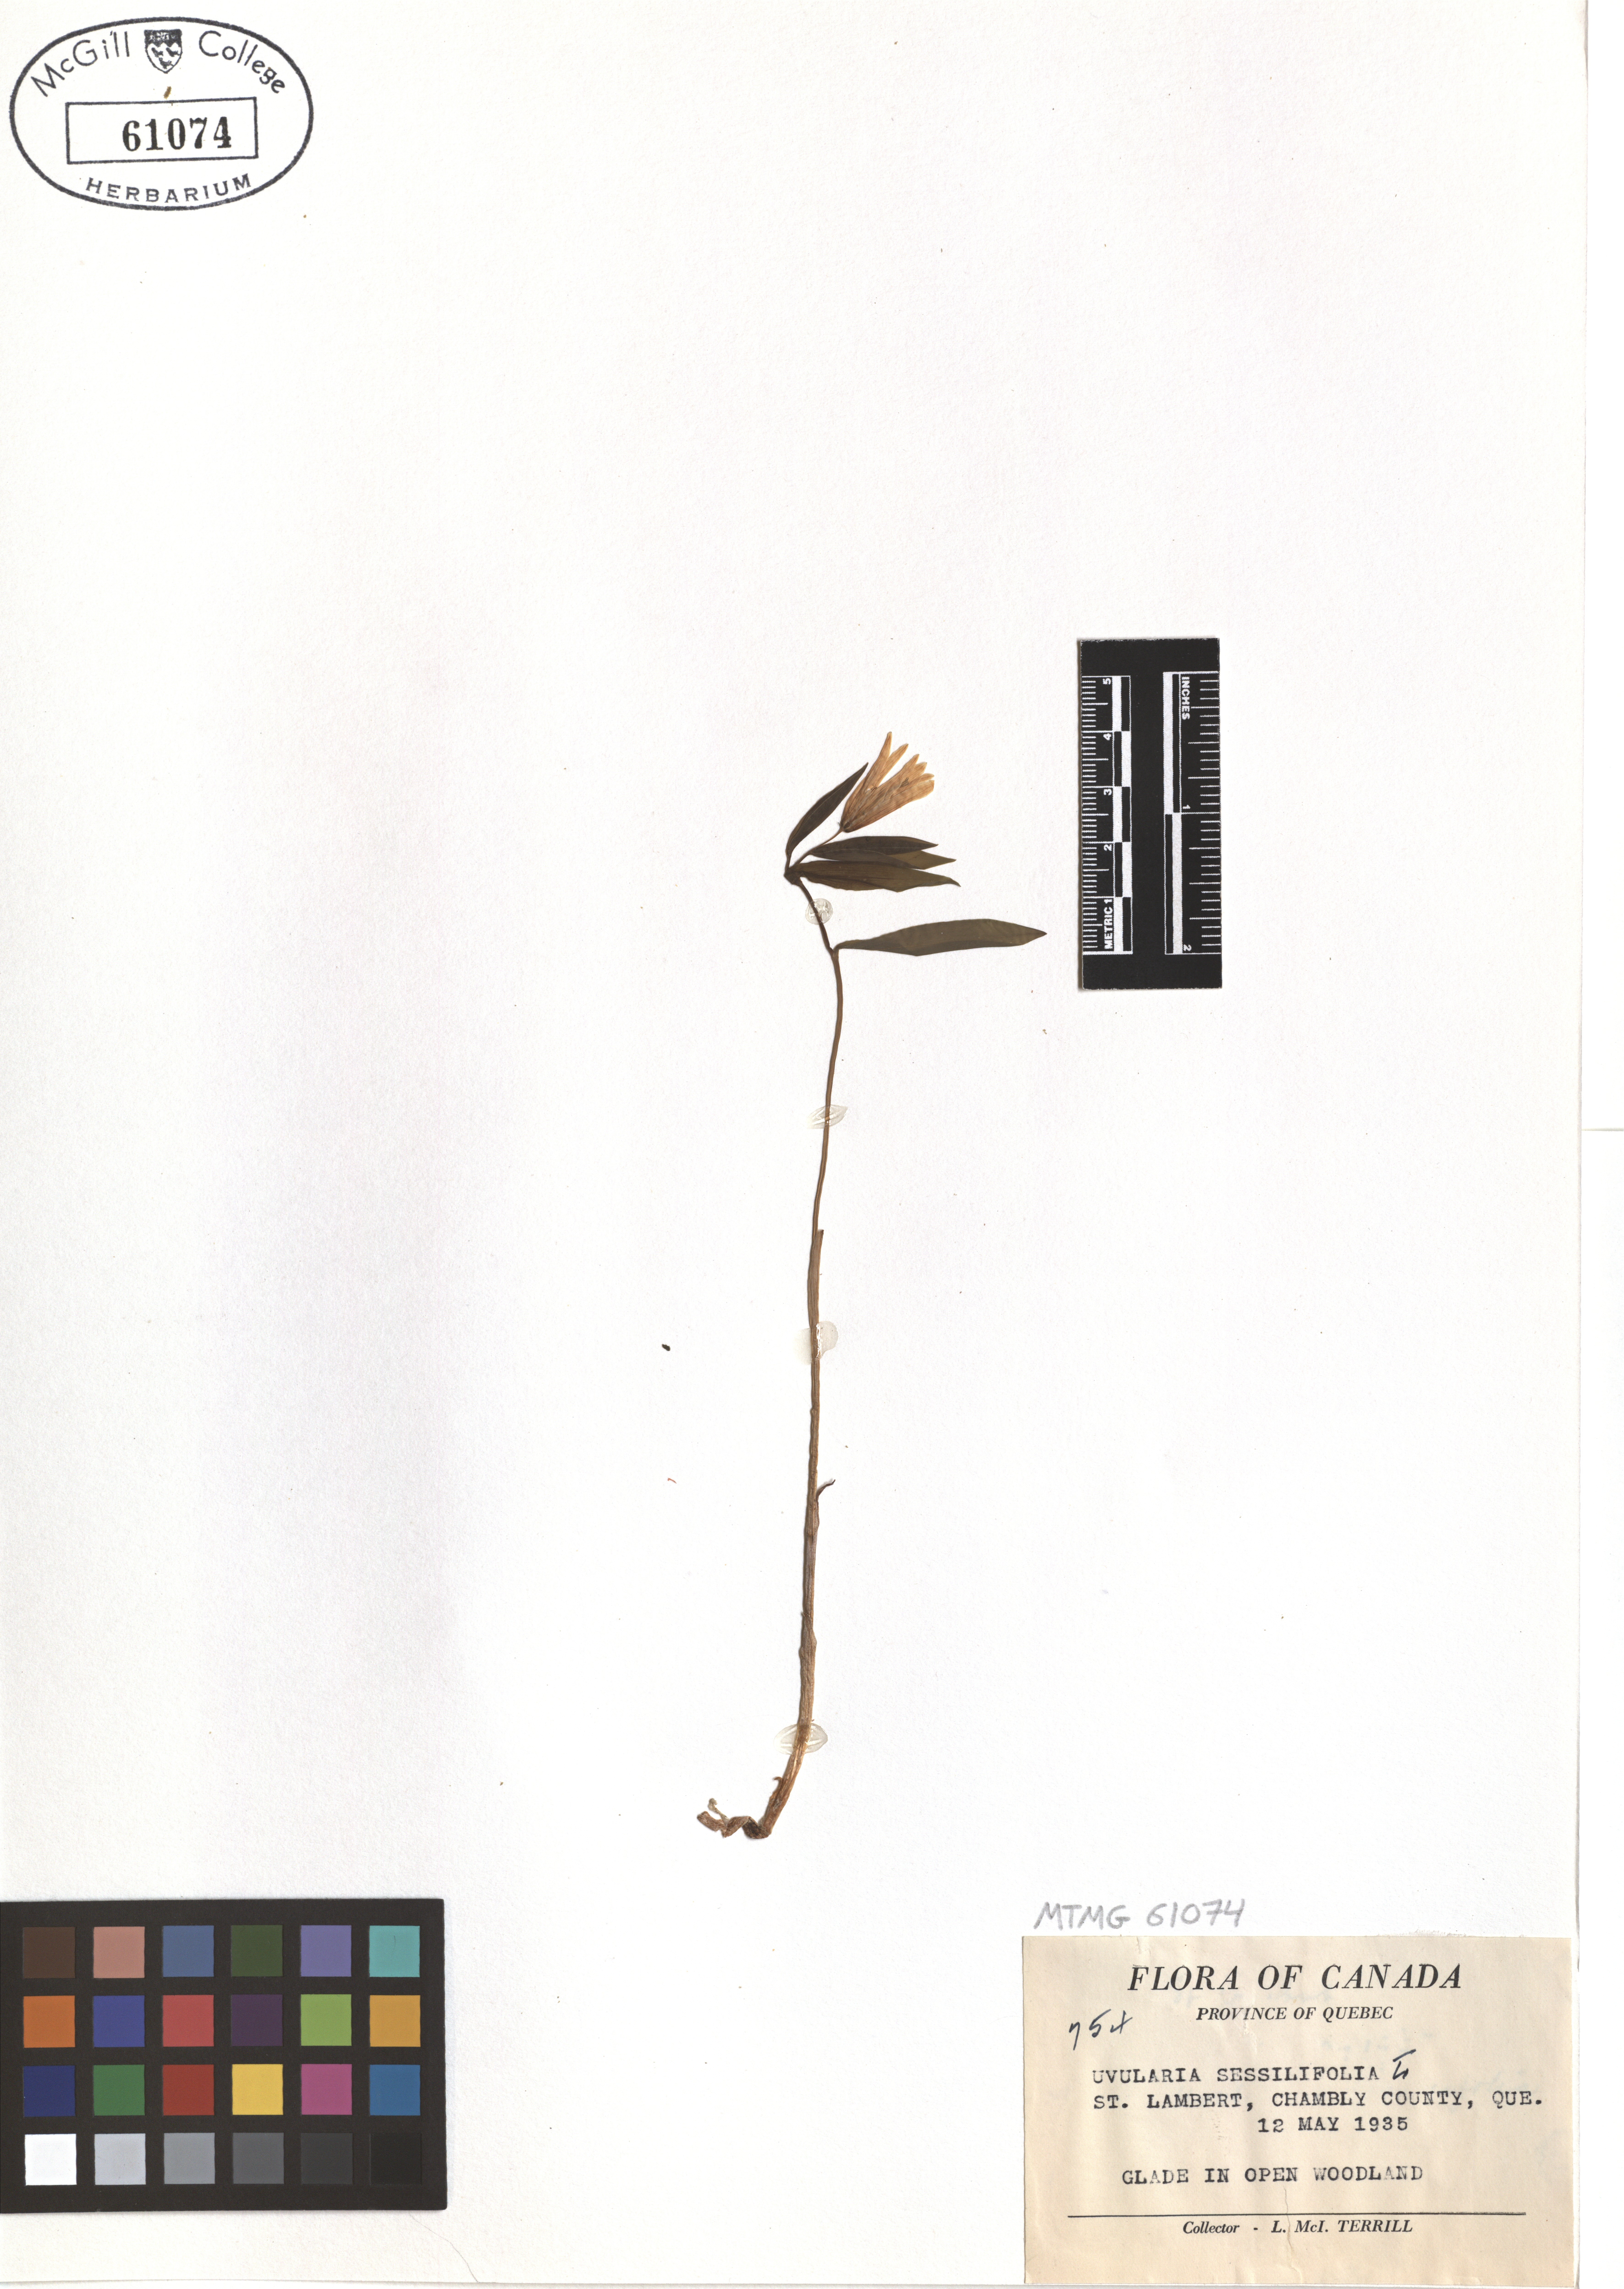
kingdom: Plantae
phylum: Tracheophyta
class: Liliopsida
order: Liliales
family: Colchicaceae
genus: Uvularia
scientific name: Uvularia sessilifolia
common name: Straw-lily
